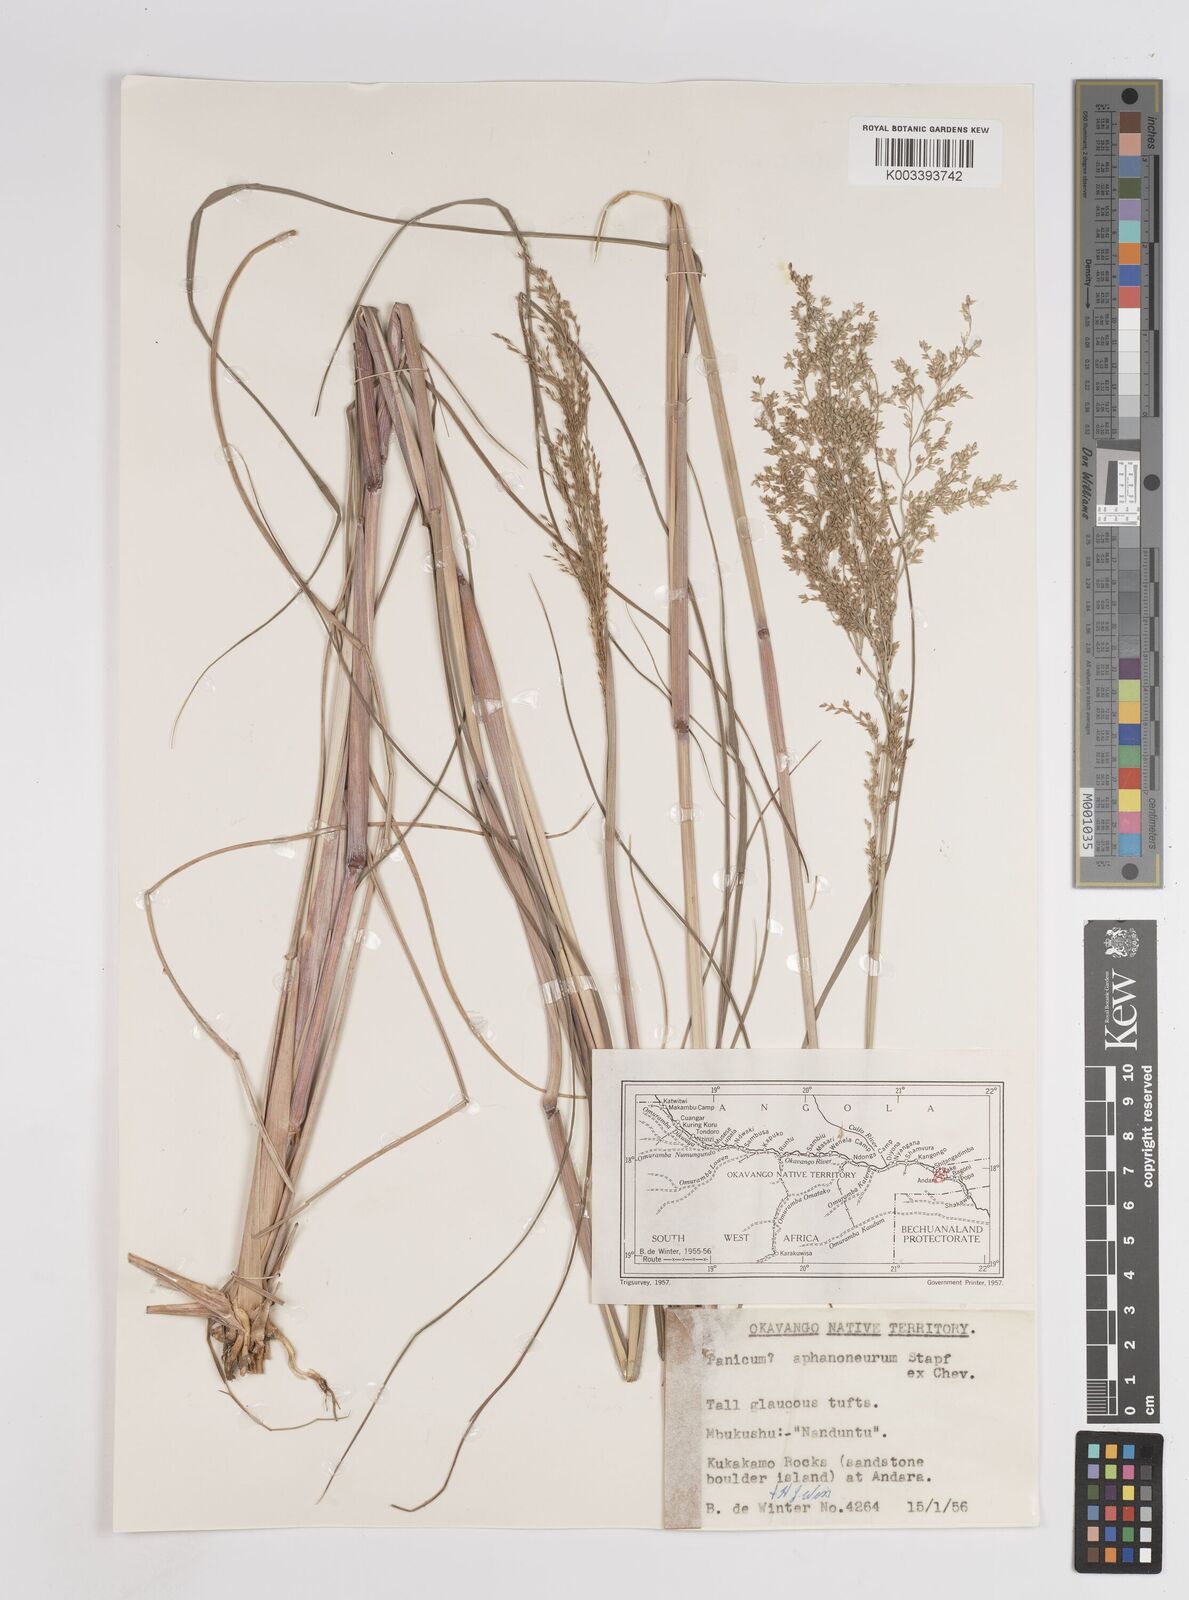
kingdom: Plantae
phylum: Tracheophyta
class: Liliopsida
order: Poales
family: Poaceae
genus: Panicum
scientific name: Panicum fluviicola
